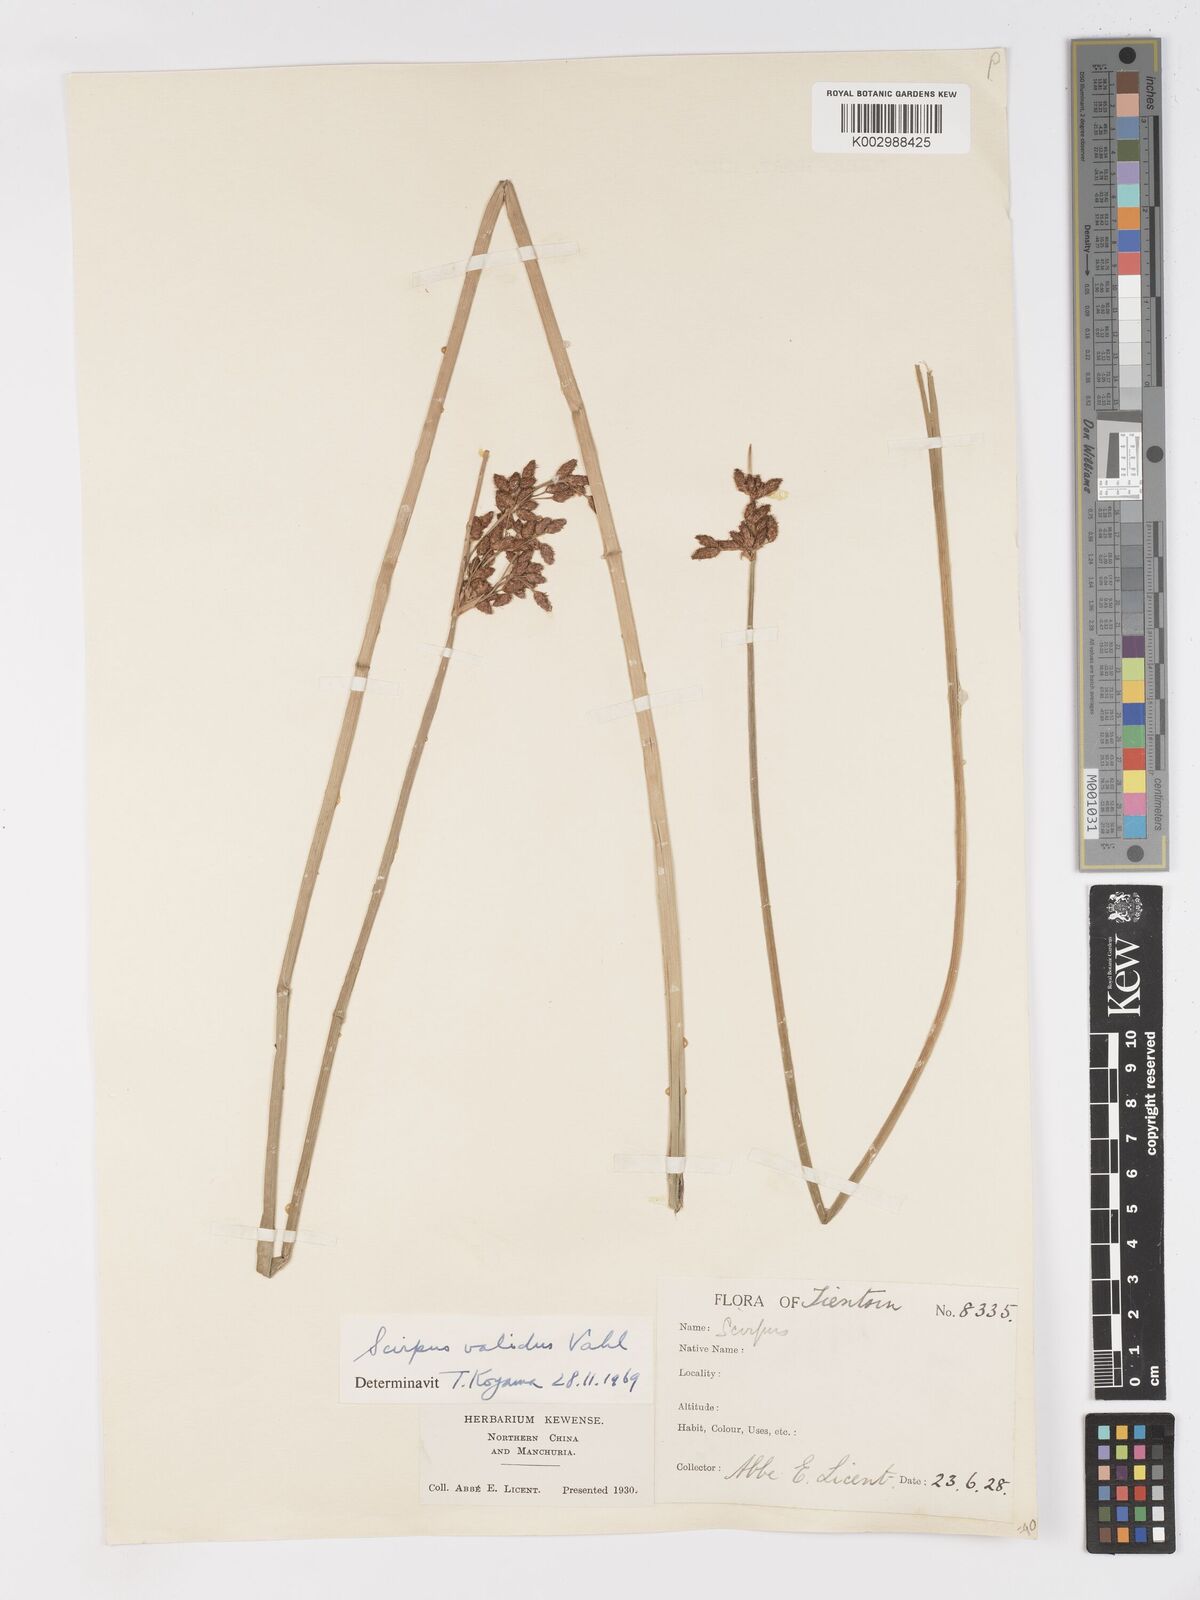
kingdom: Plantae
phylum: Tracheophyta
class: Liliopsida
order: Poales
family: Cyperaceae
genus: Schoenoplectus
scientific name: Schoenoplectus lacustris
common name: Common club-rush
